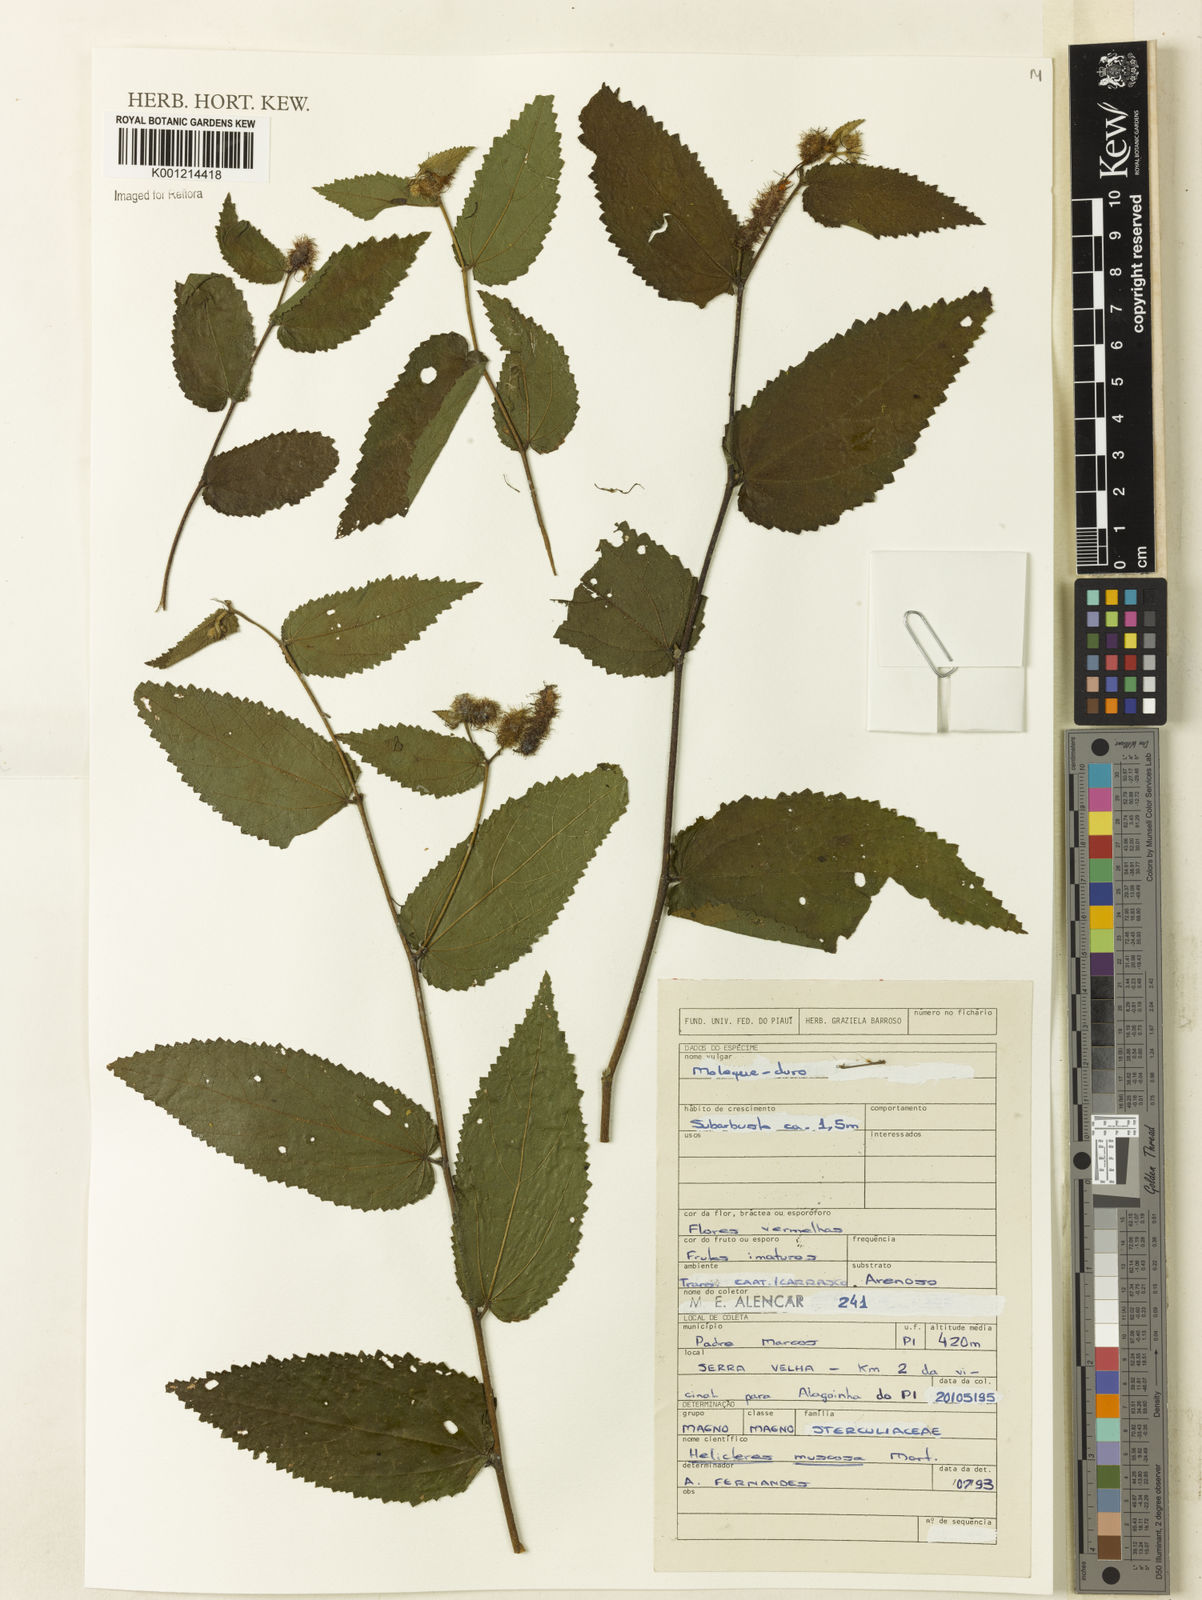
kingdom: Plantae
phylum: Tracheophyta
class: Magnoliopsida
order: Malvales
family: Malvaceae
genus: Helicteres
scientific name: Helicteres muscosa
